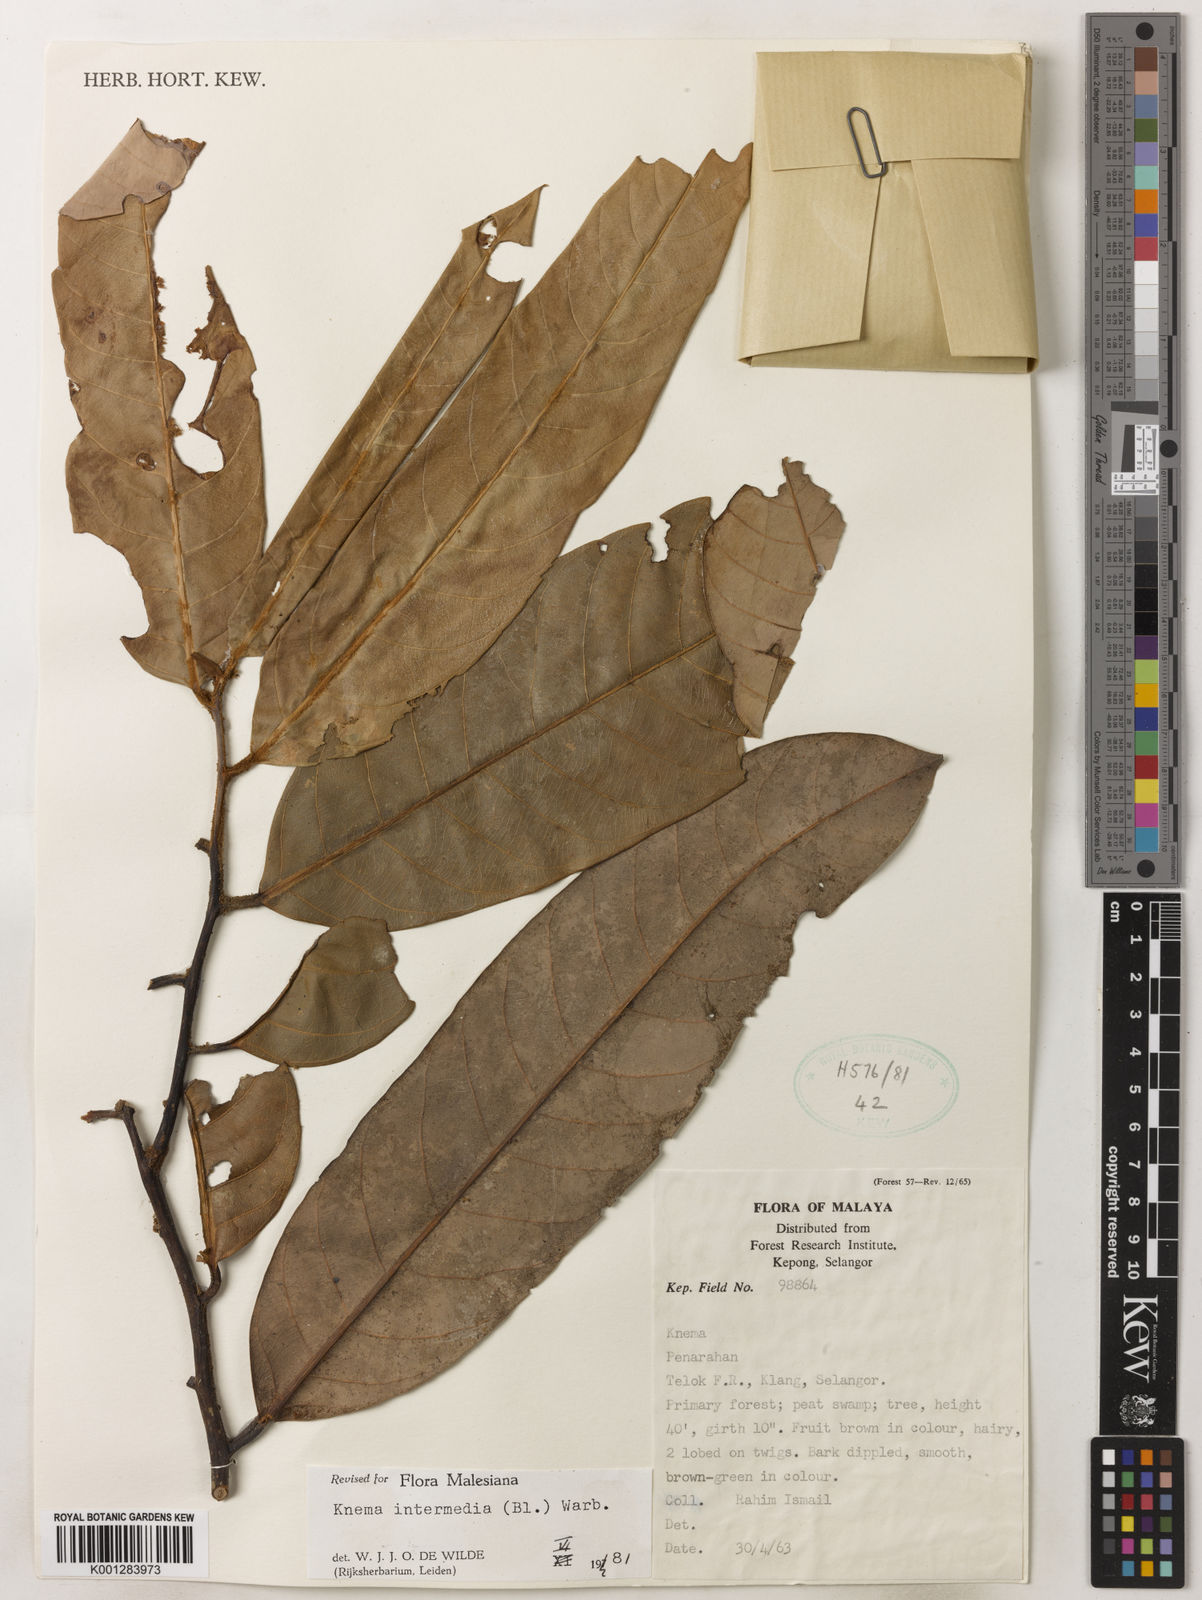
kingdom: Plantae
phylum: Tracheophyta
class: Magnoliopsida
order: Magnoliales
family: Myristicaceae
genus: Knema
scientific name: Knema intermedia
